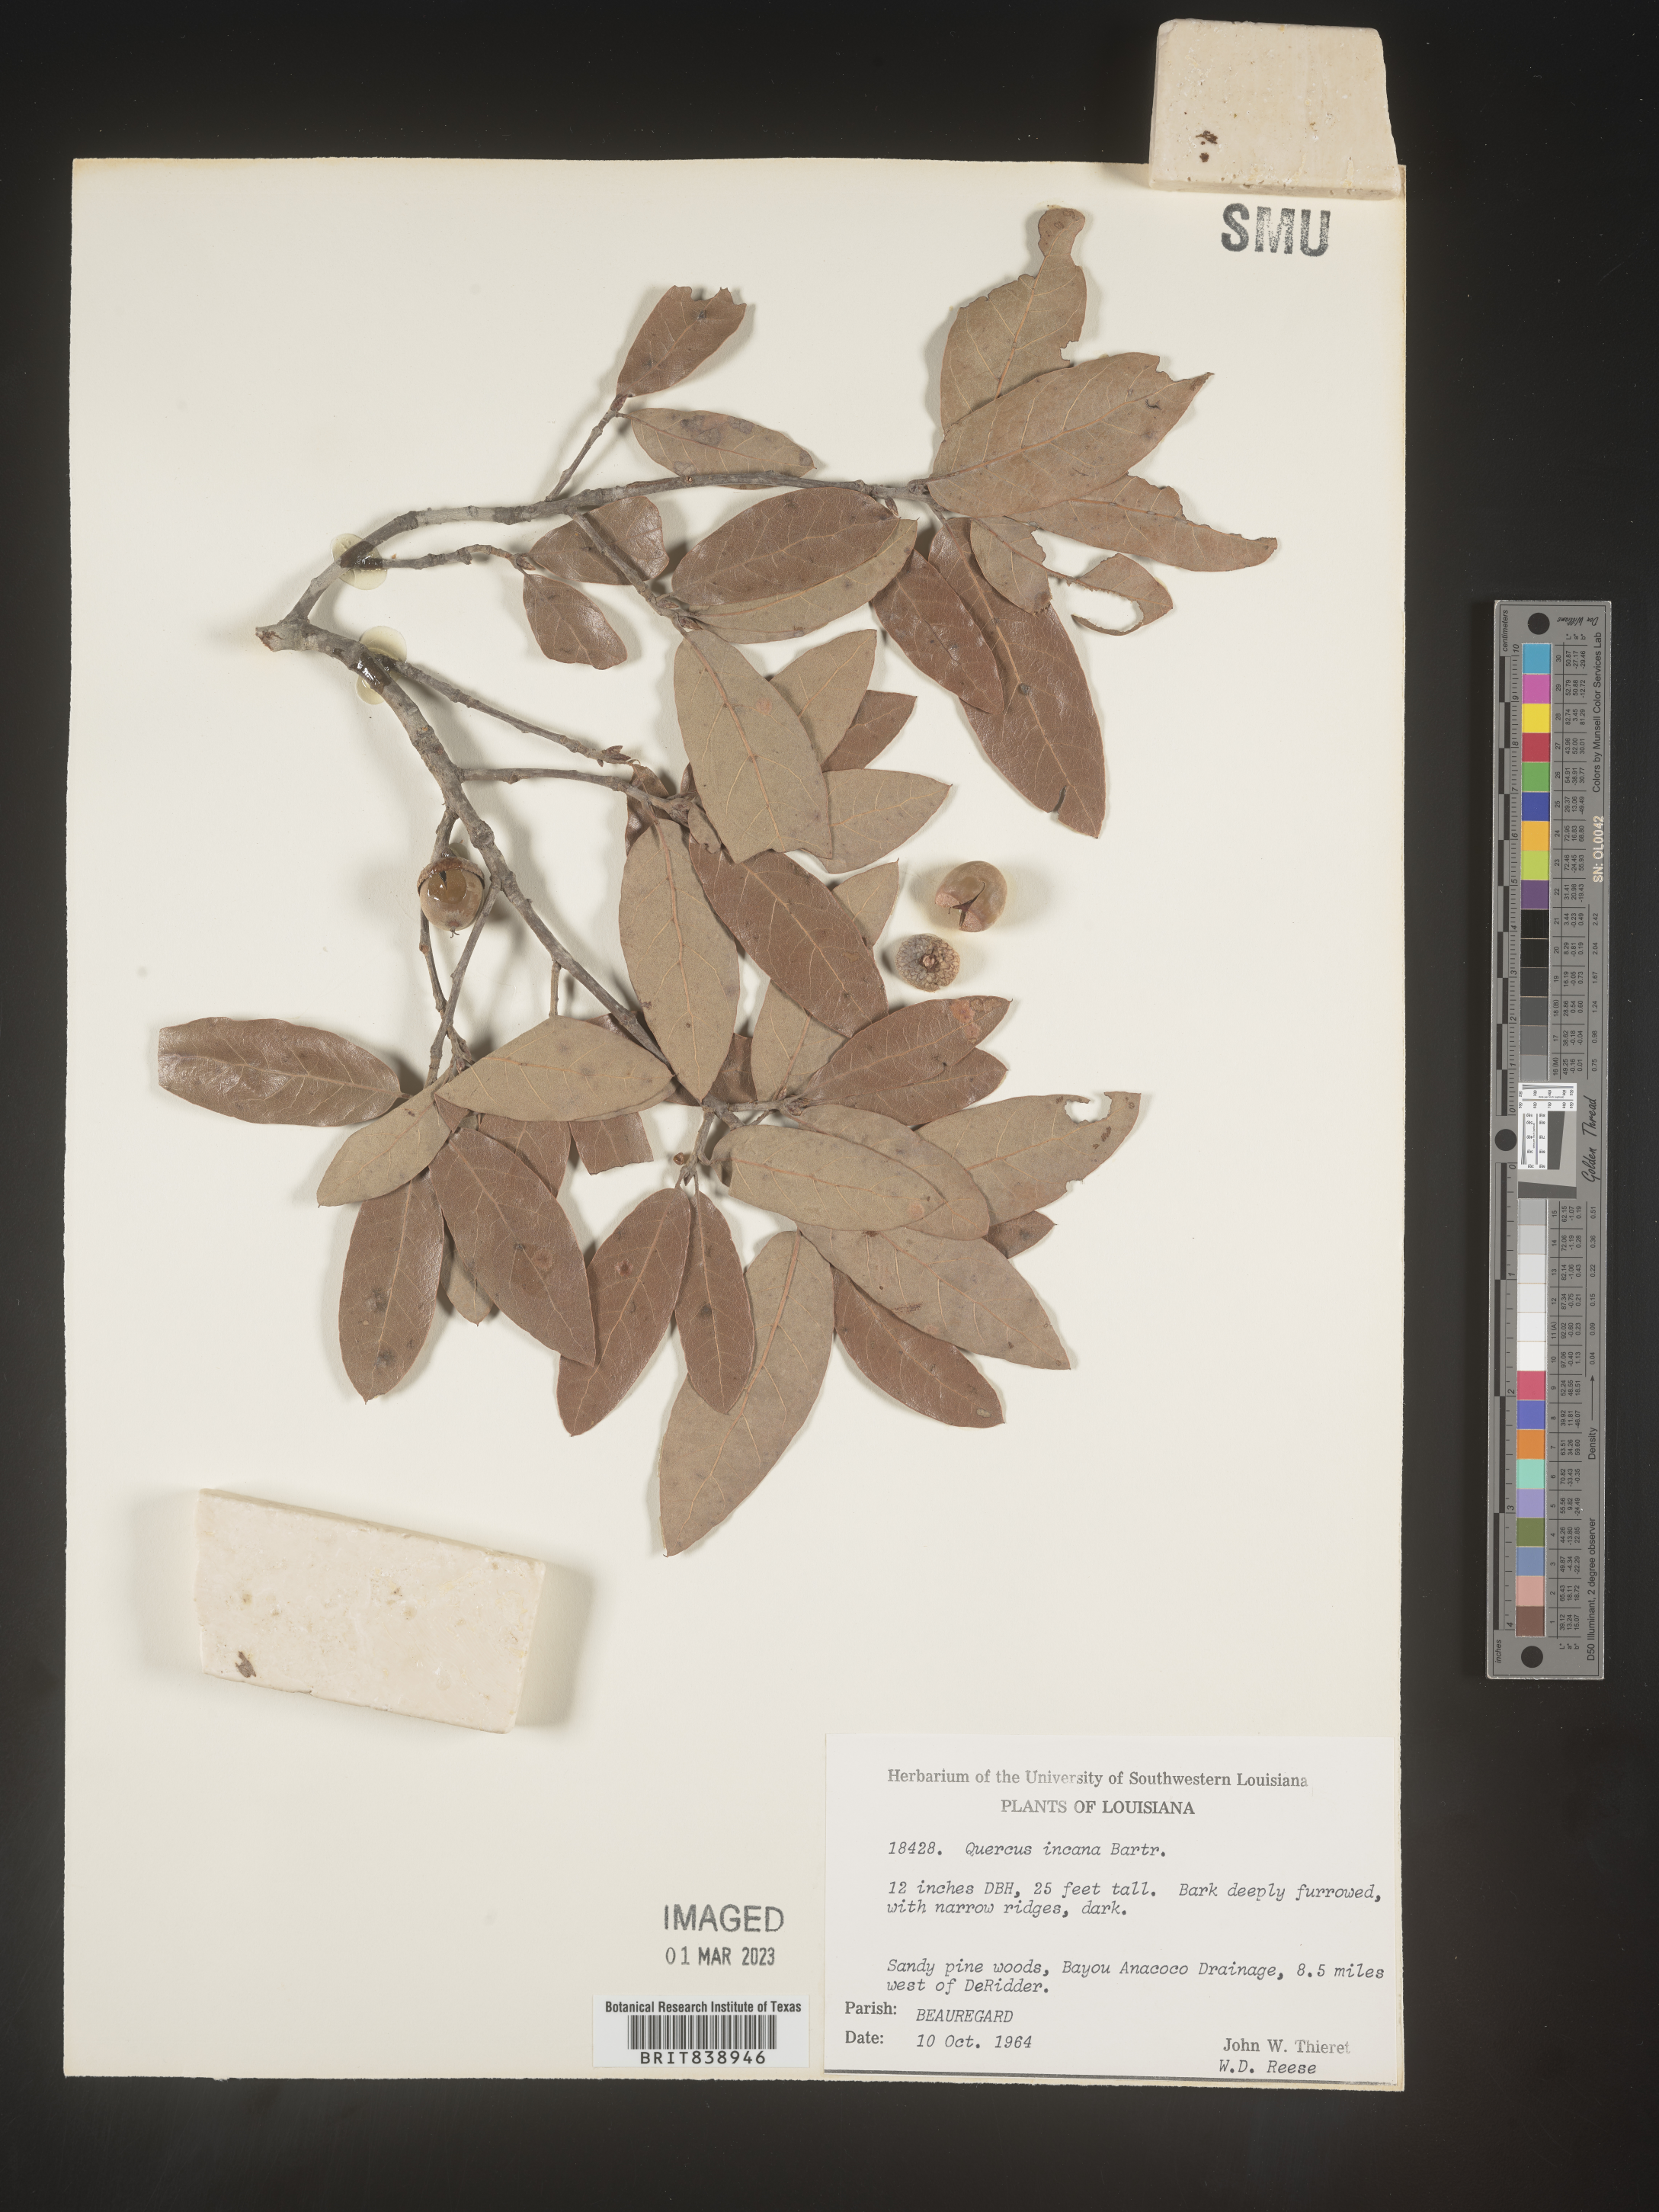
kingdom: Plantae
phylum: Tracheophyta
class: Magnoliopsida
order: Fagales
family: Fagaceae
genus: Quercus
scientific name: Quercus incana
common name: Bluejack oak
